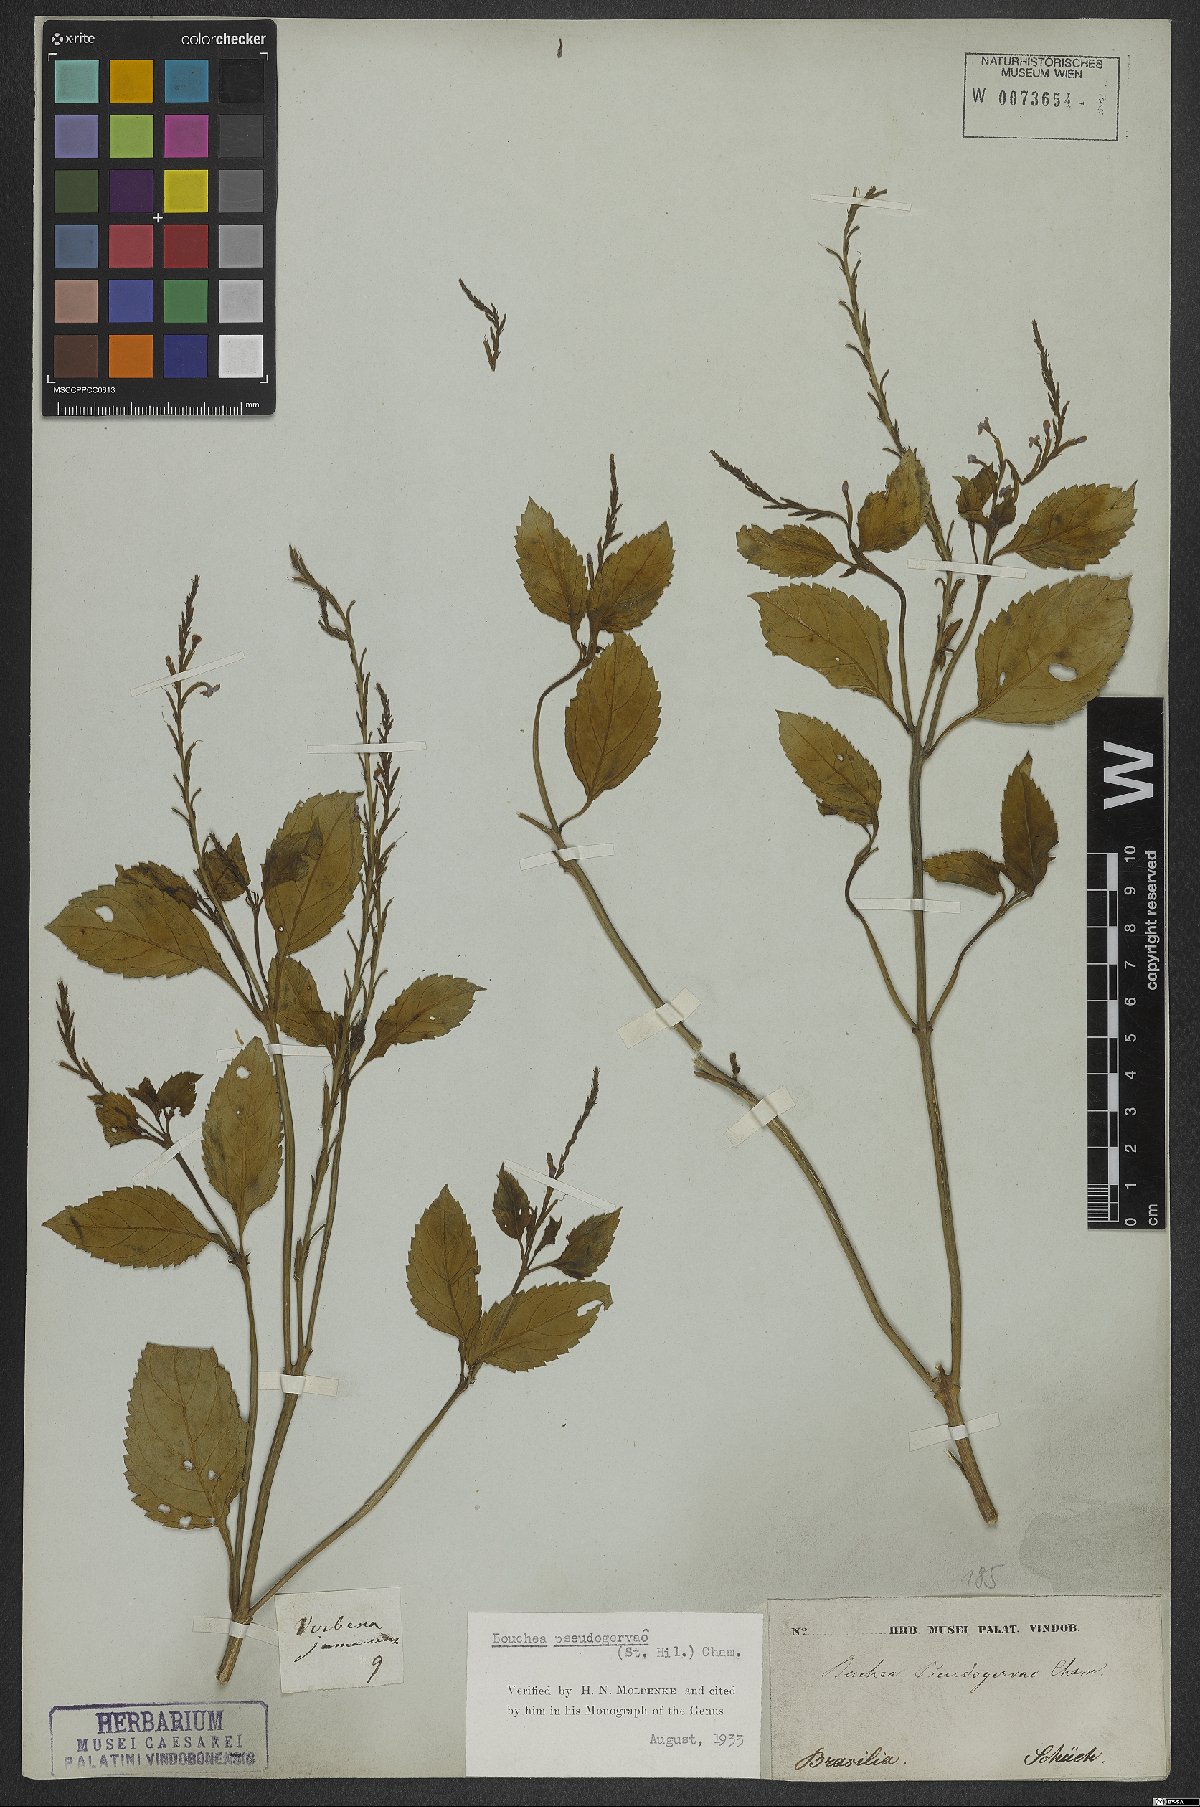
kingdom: Plantae
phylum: Tracheophyta
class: Magnoliopsida
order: Lamiales
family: Verbenaceae
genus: Bouchea
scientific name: Bouchea pseudogervao
